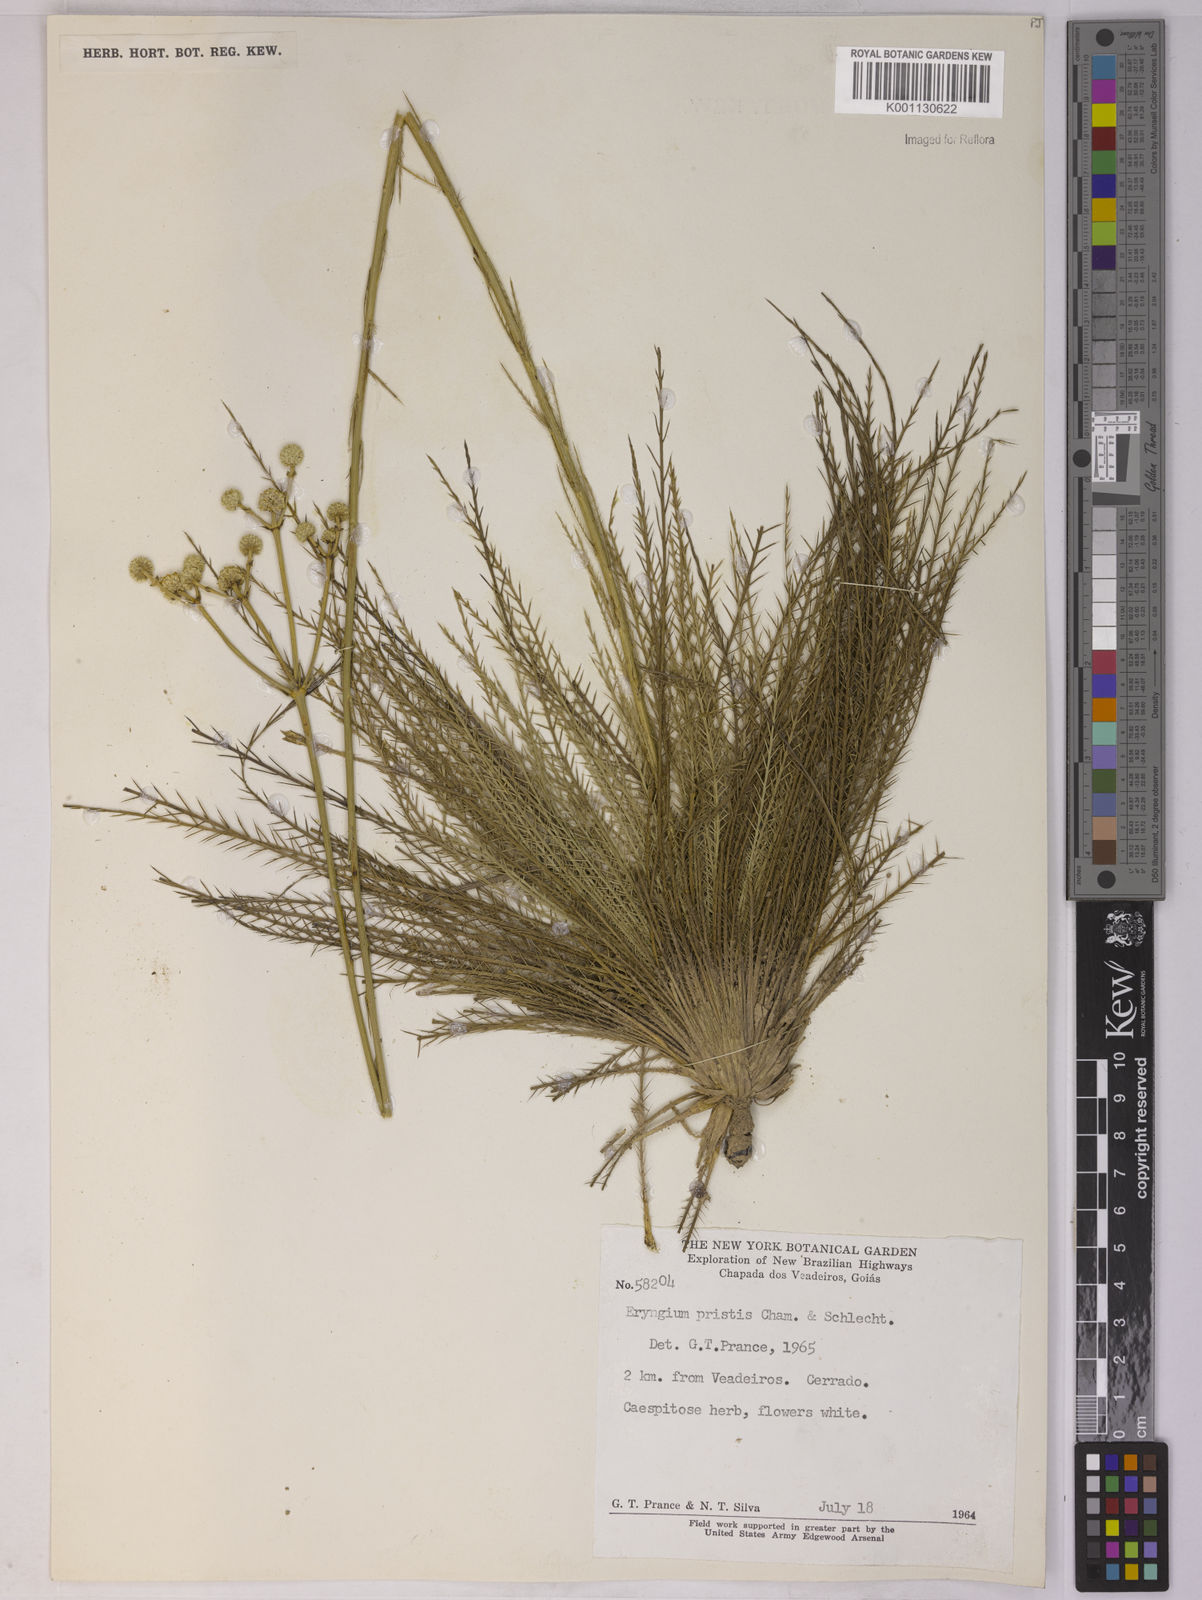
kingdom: Plantae
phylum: Tracheophyta
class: Magnoliopsida
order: Apiales
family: Apiaceae
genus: Eryngium
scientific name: Eryngium pristis
